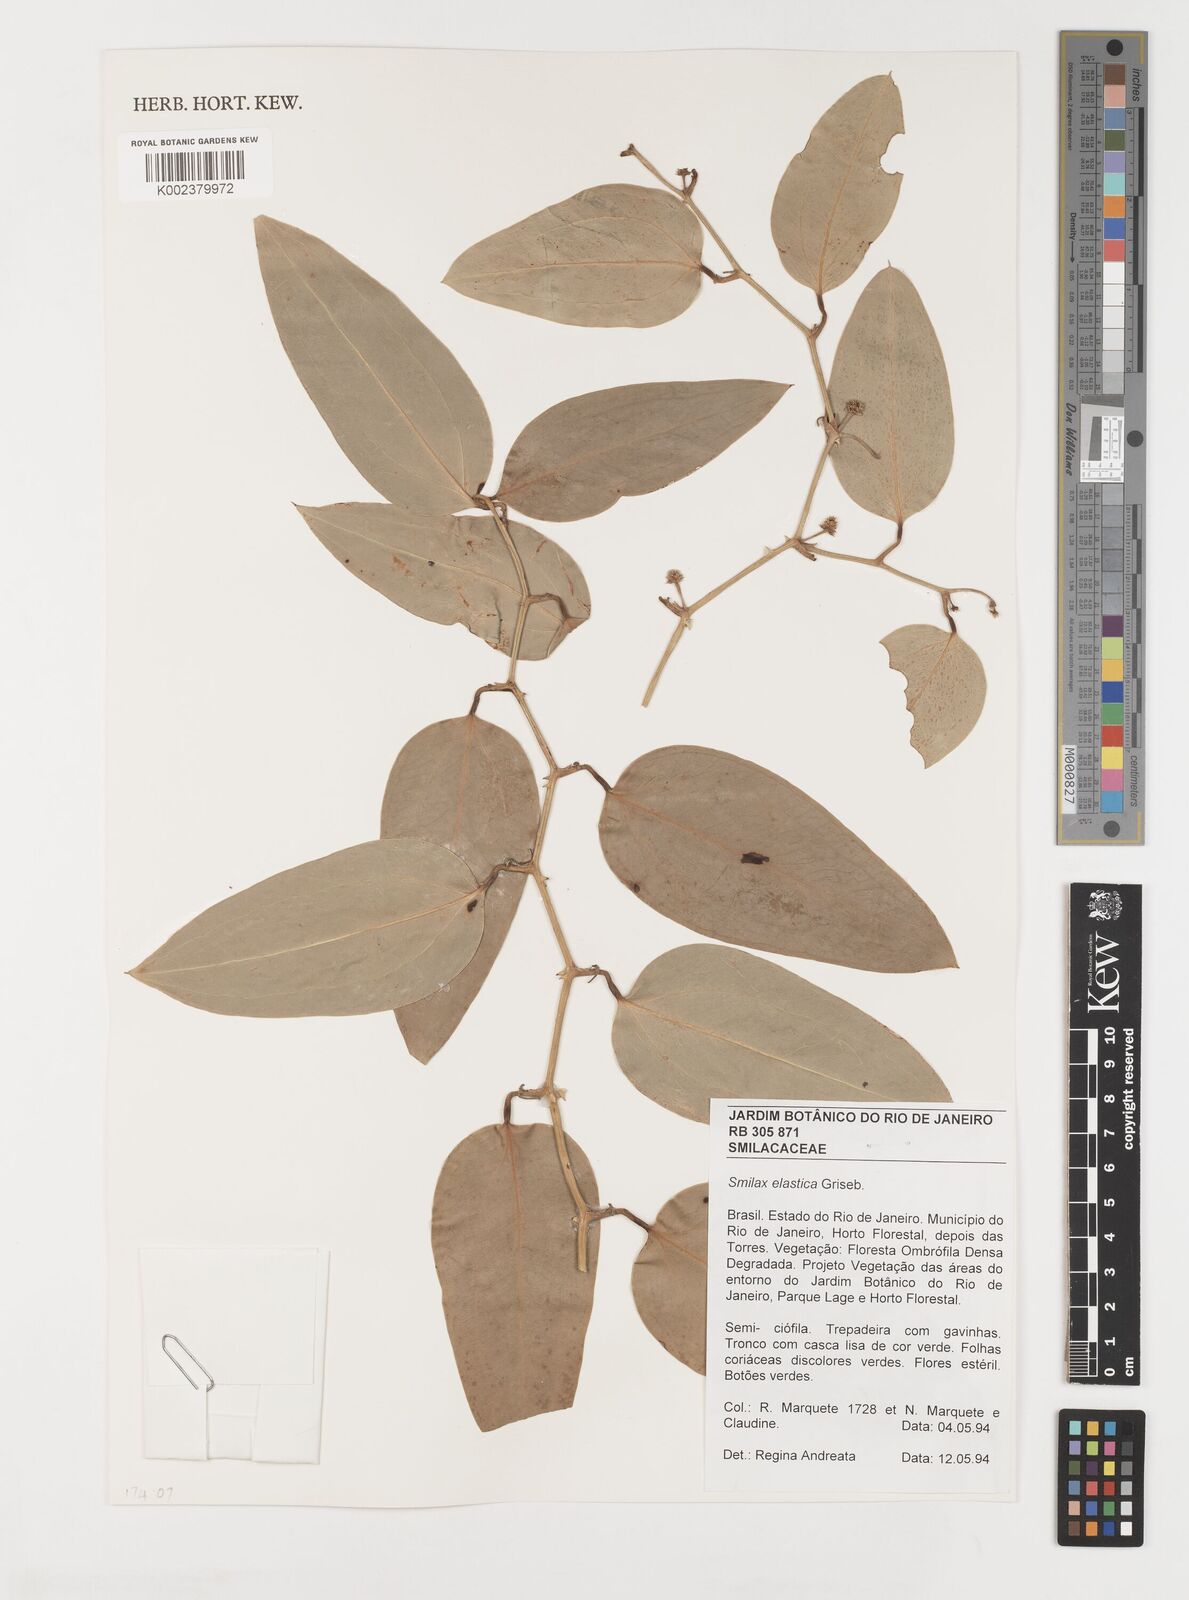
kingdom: Plantae
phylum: Tracheophyta
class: Liliopsida
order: Liliales
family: Smilacaceae
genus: Smilax
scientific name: Smilax elastica
